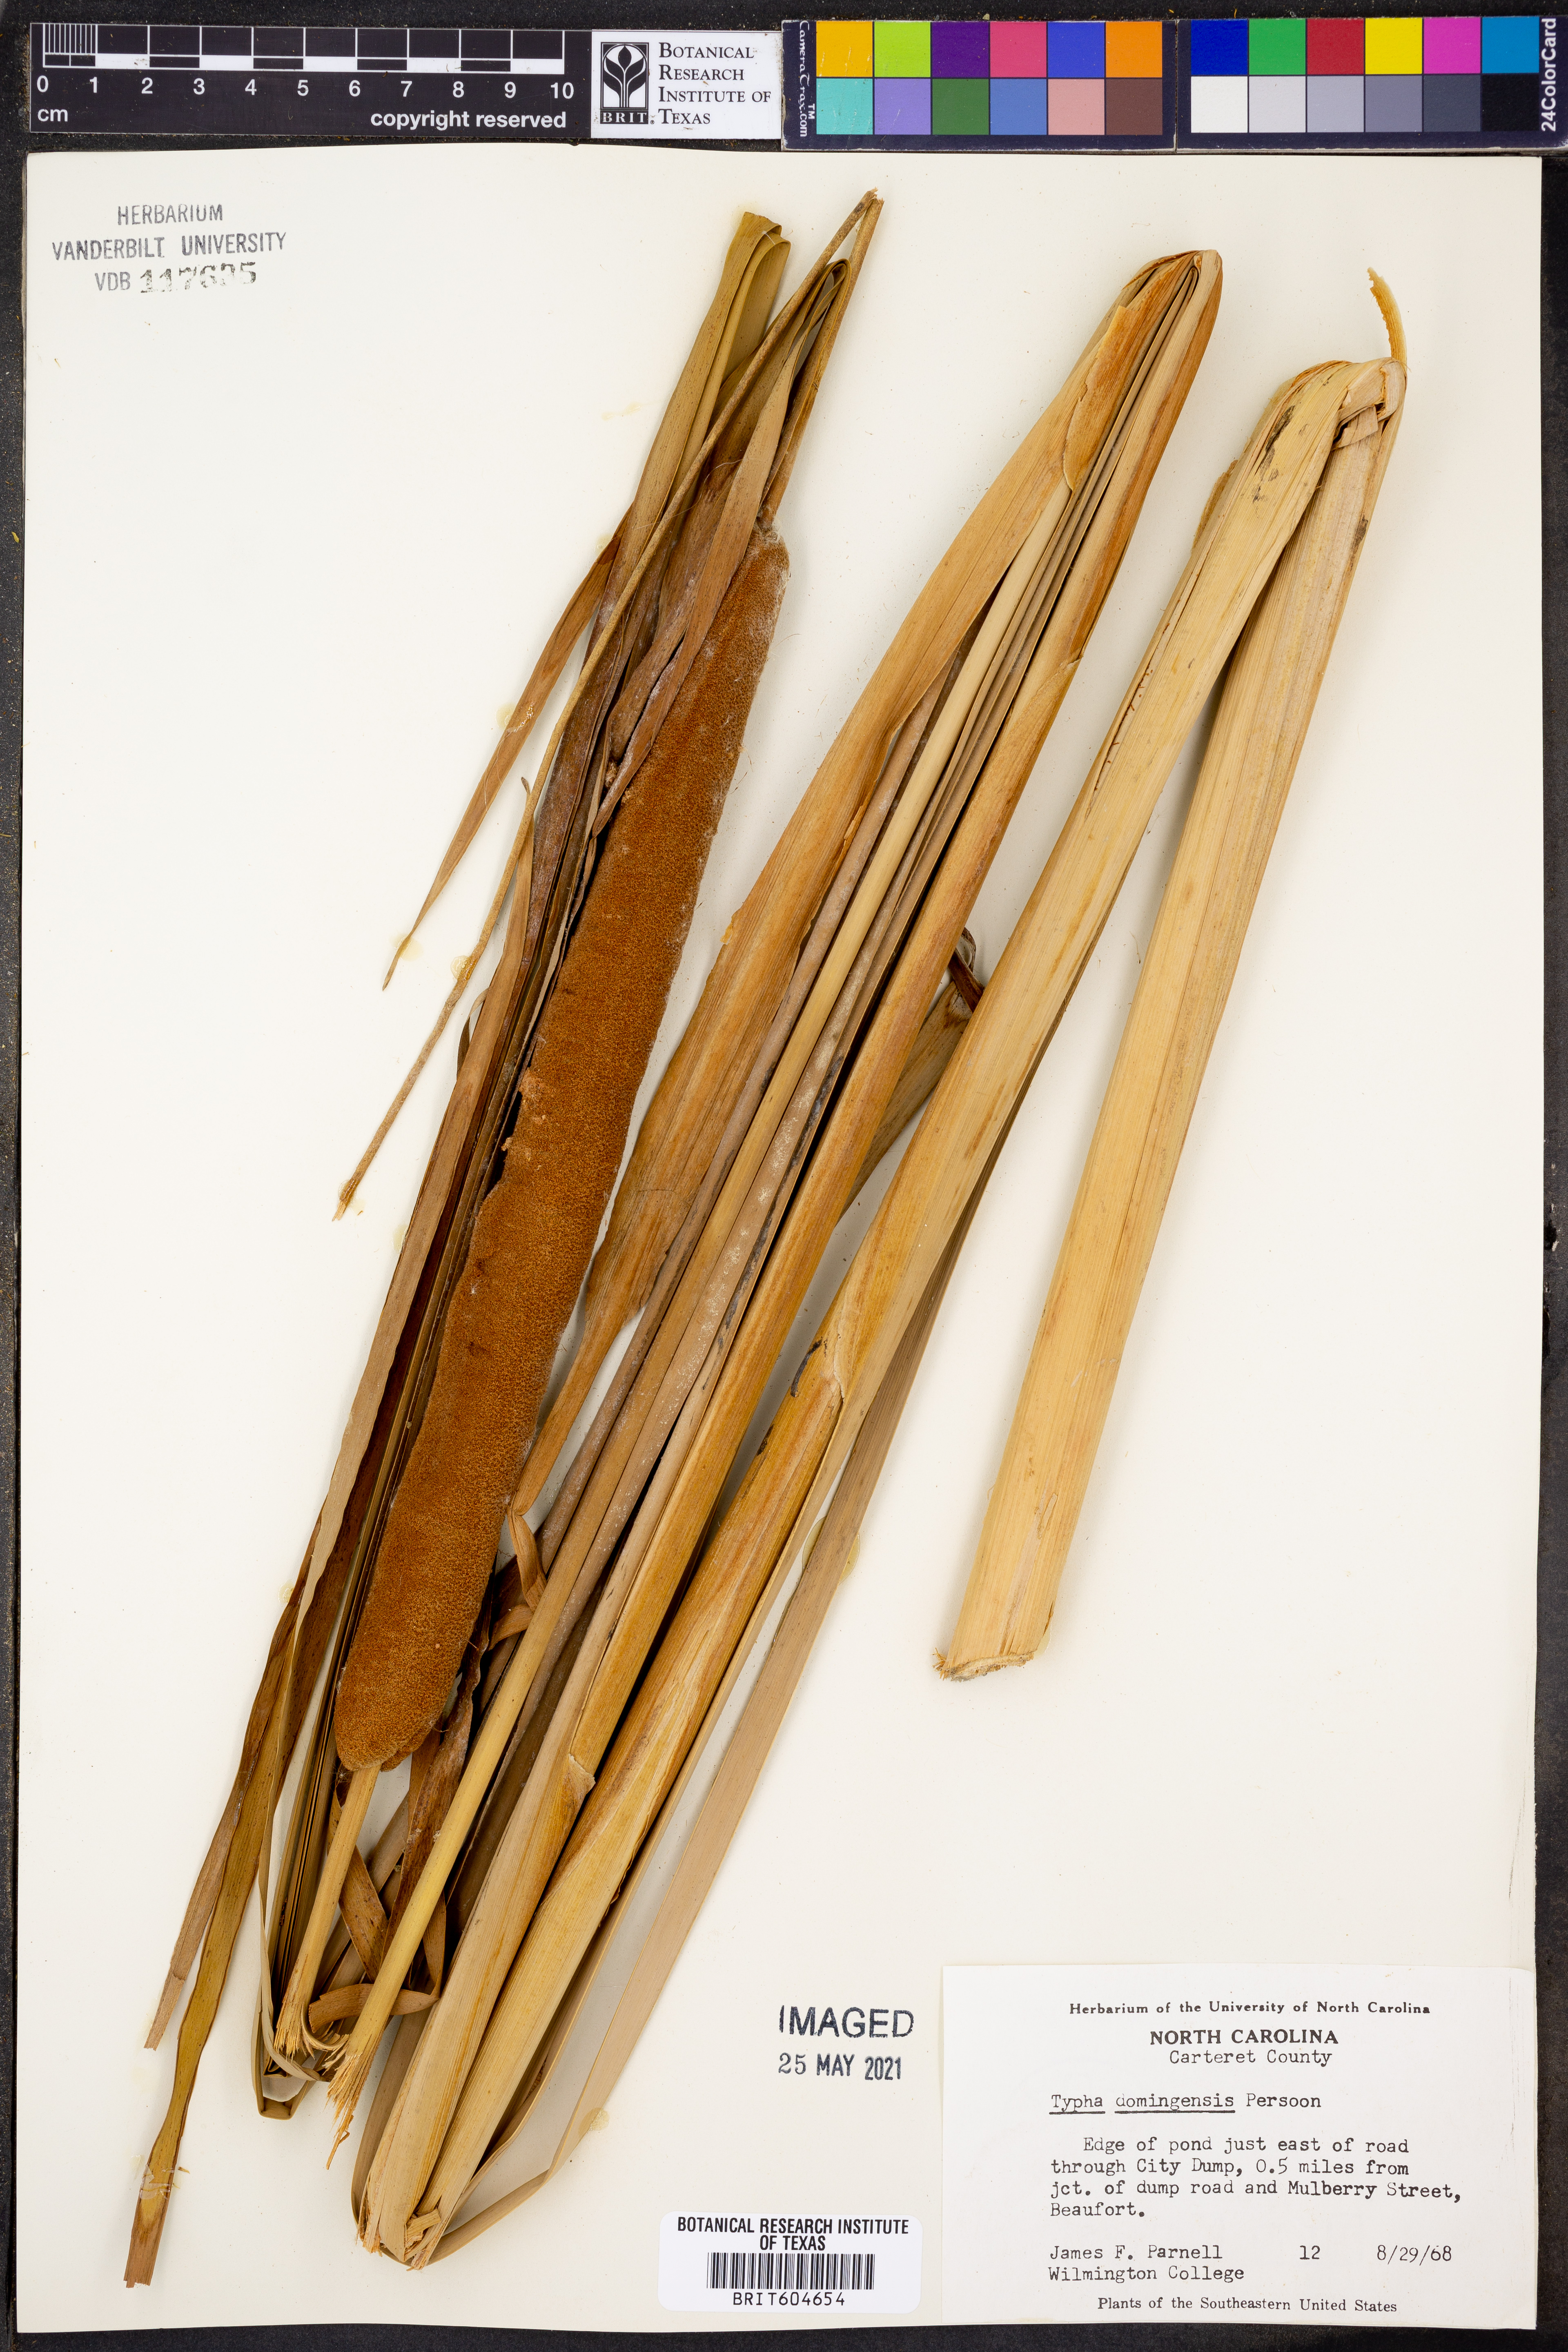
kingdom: Plantae
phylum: Tracheophyta
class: Liliopsida
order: Poales
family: Typhaceae
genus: Typha
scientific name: Typha domingensis
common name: Southern cattail
